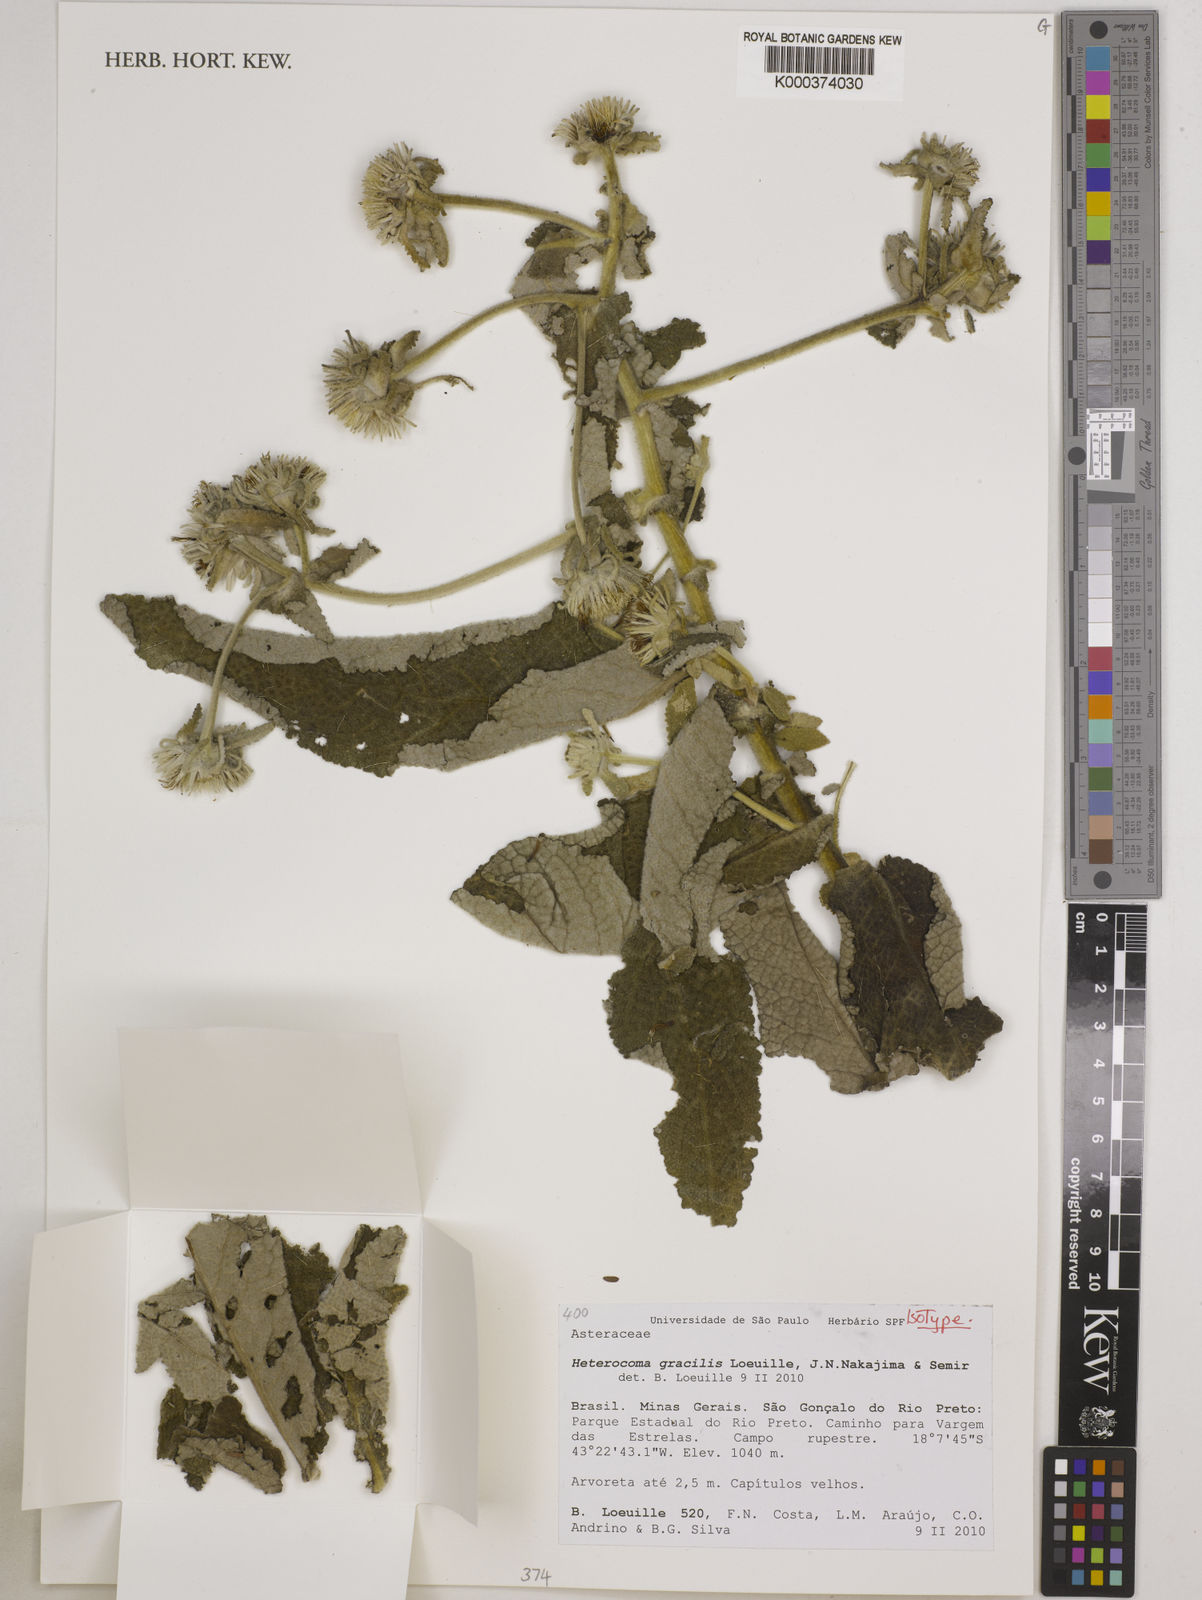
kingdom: Plantae
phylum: Tracheophyta
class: Magnoliopsida
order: Asterales
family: Asteraceae
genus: Heterocoma
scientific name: Heterocoma
